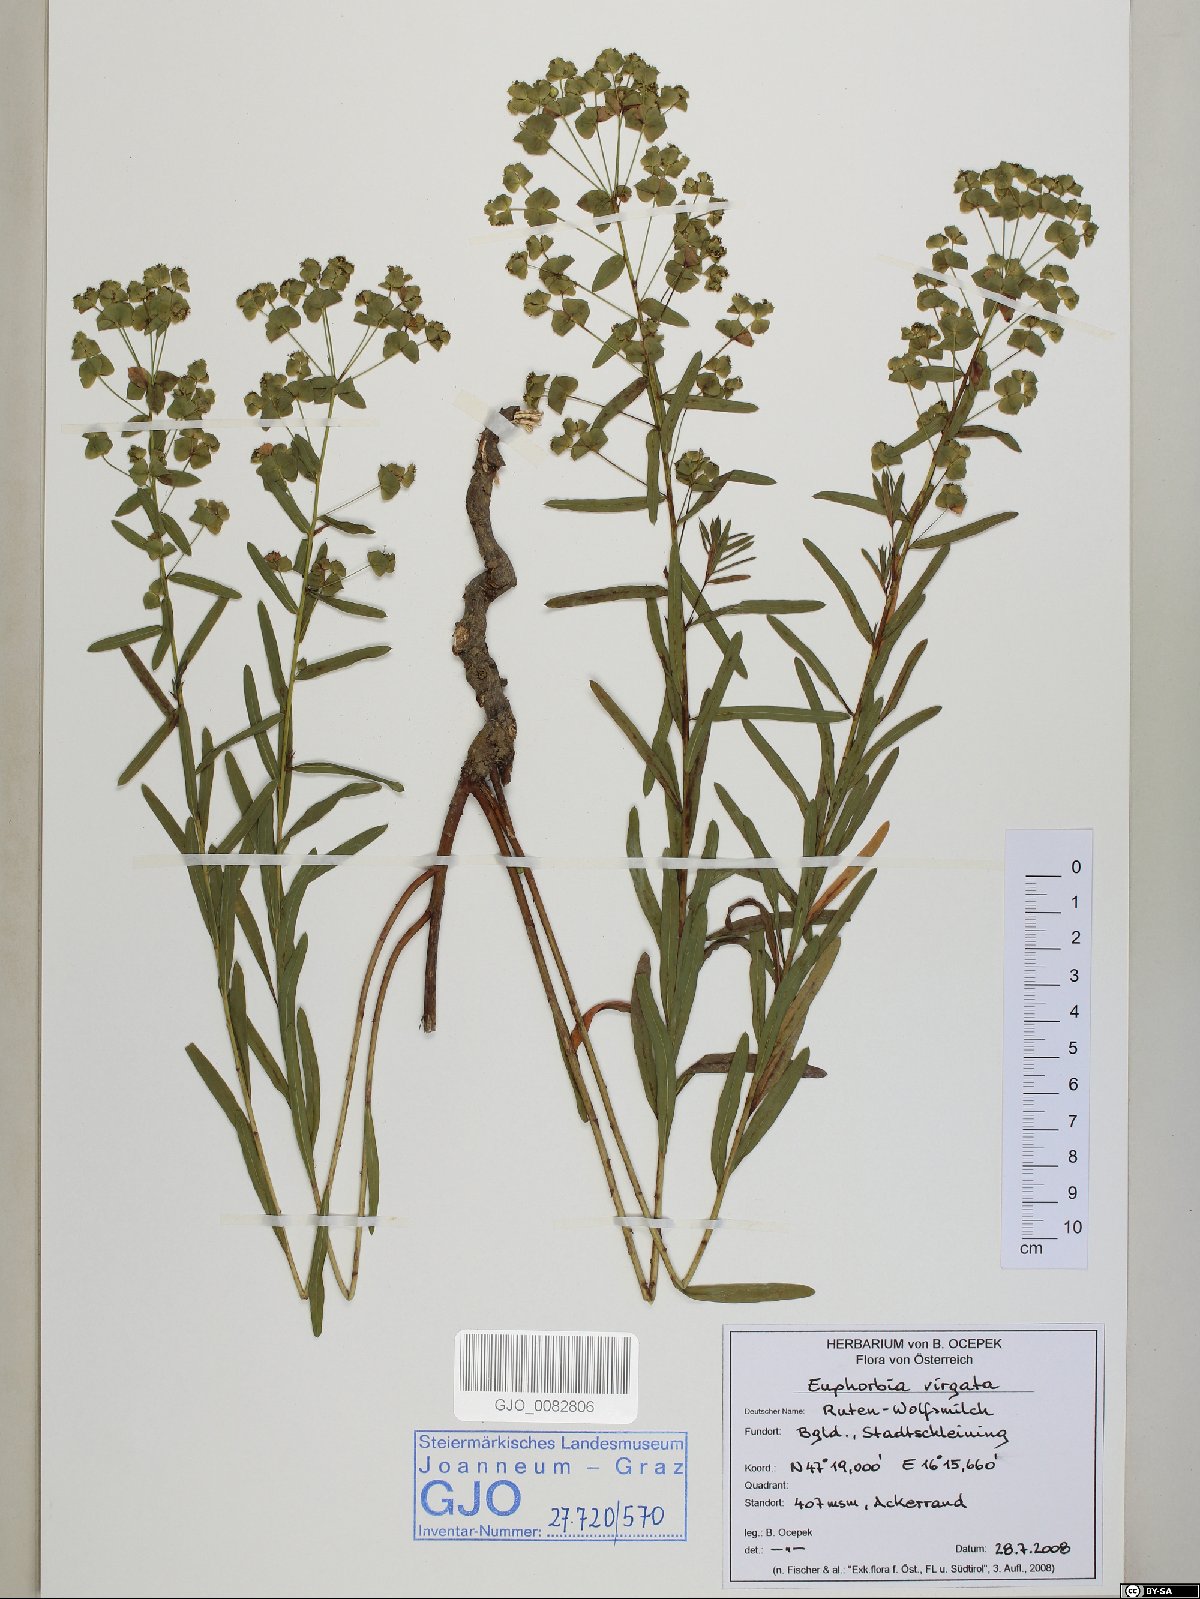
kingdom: Plantae
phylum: Tracheophyta
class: Magnoliopsida
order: Malpighiales
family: Euphorbiaceae
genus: Euphorbia
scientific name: Euphorbia saratoi
